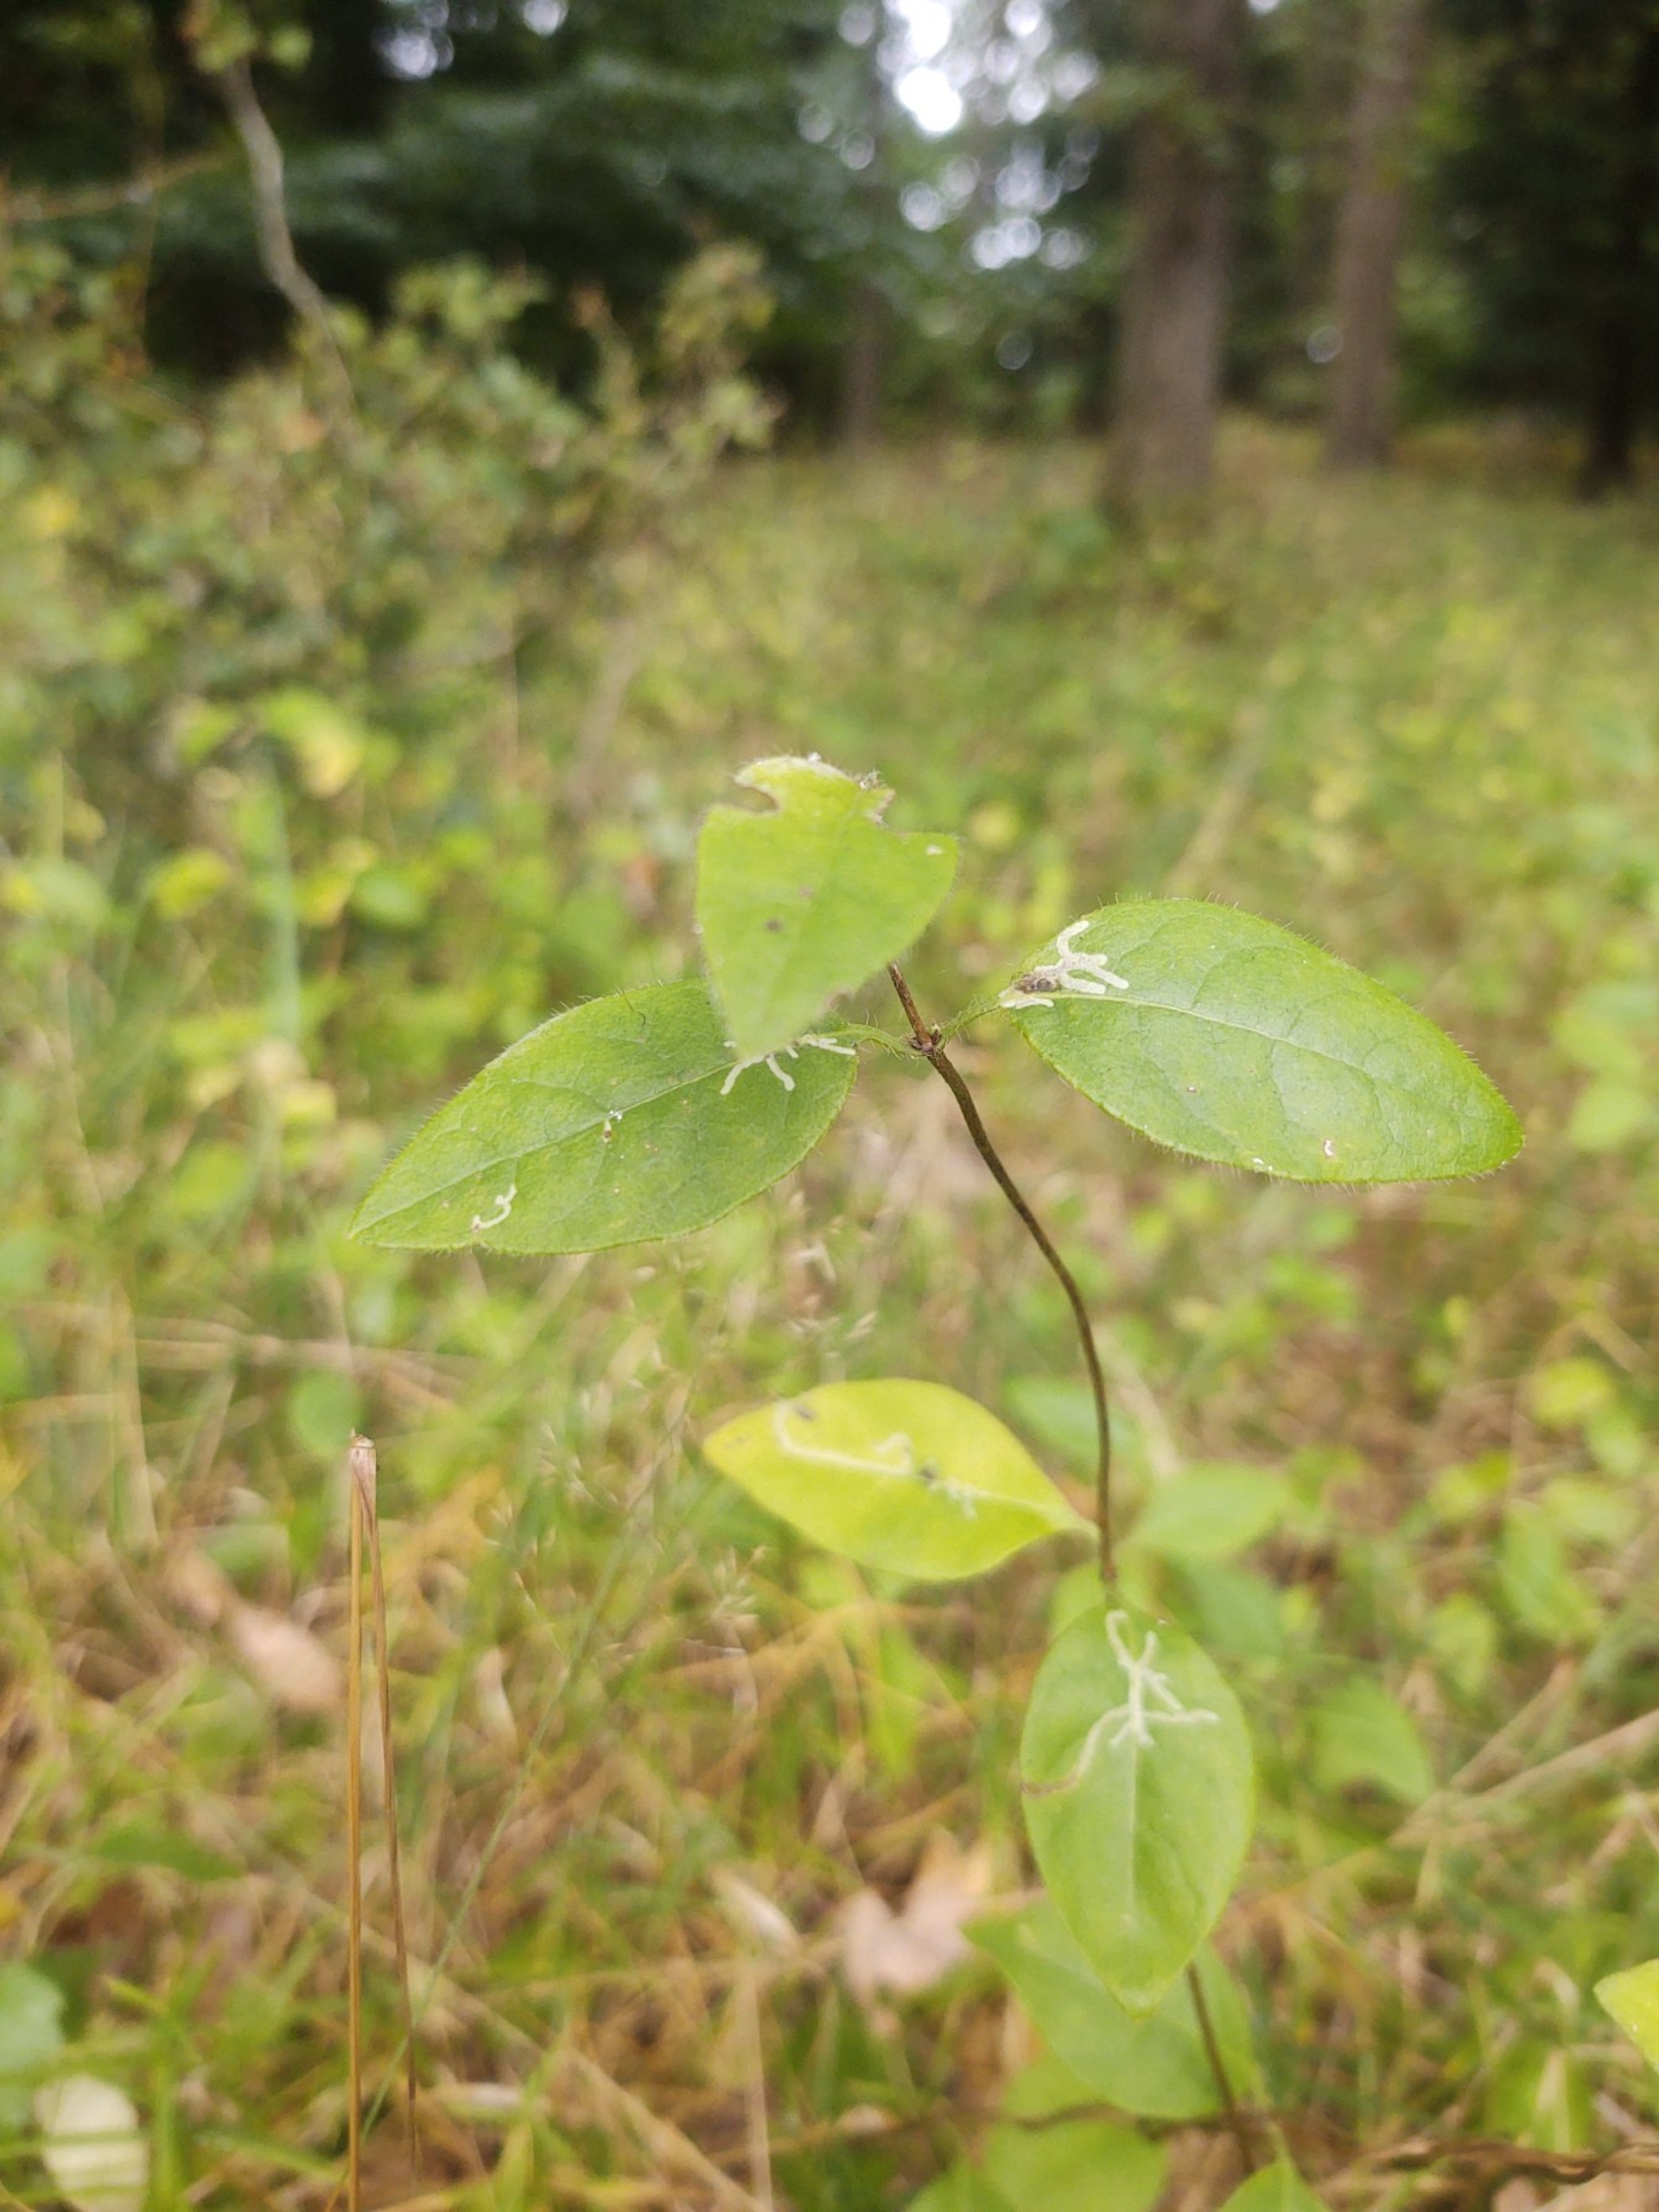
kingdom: Plantae
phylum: Tracheophyta
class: Magnoliopsida
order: Dipsacales
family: Caprifoliaceae
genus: Lonicera
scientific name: Lonicera periclymenum
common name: Almindelig gedeblad
